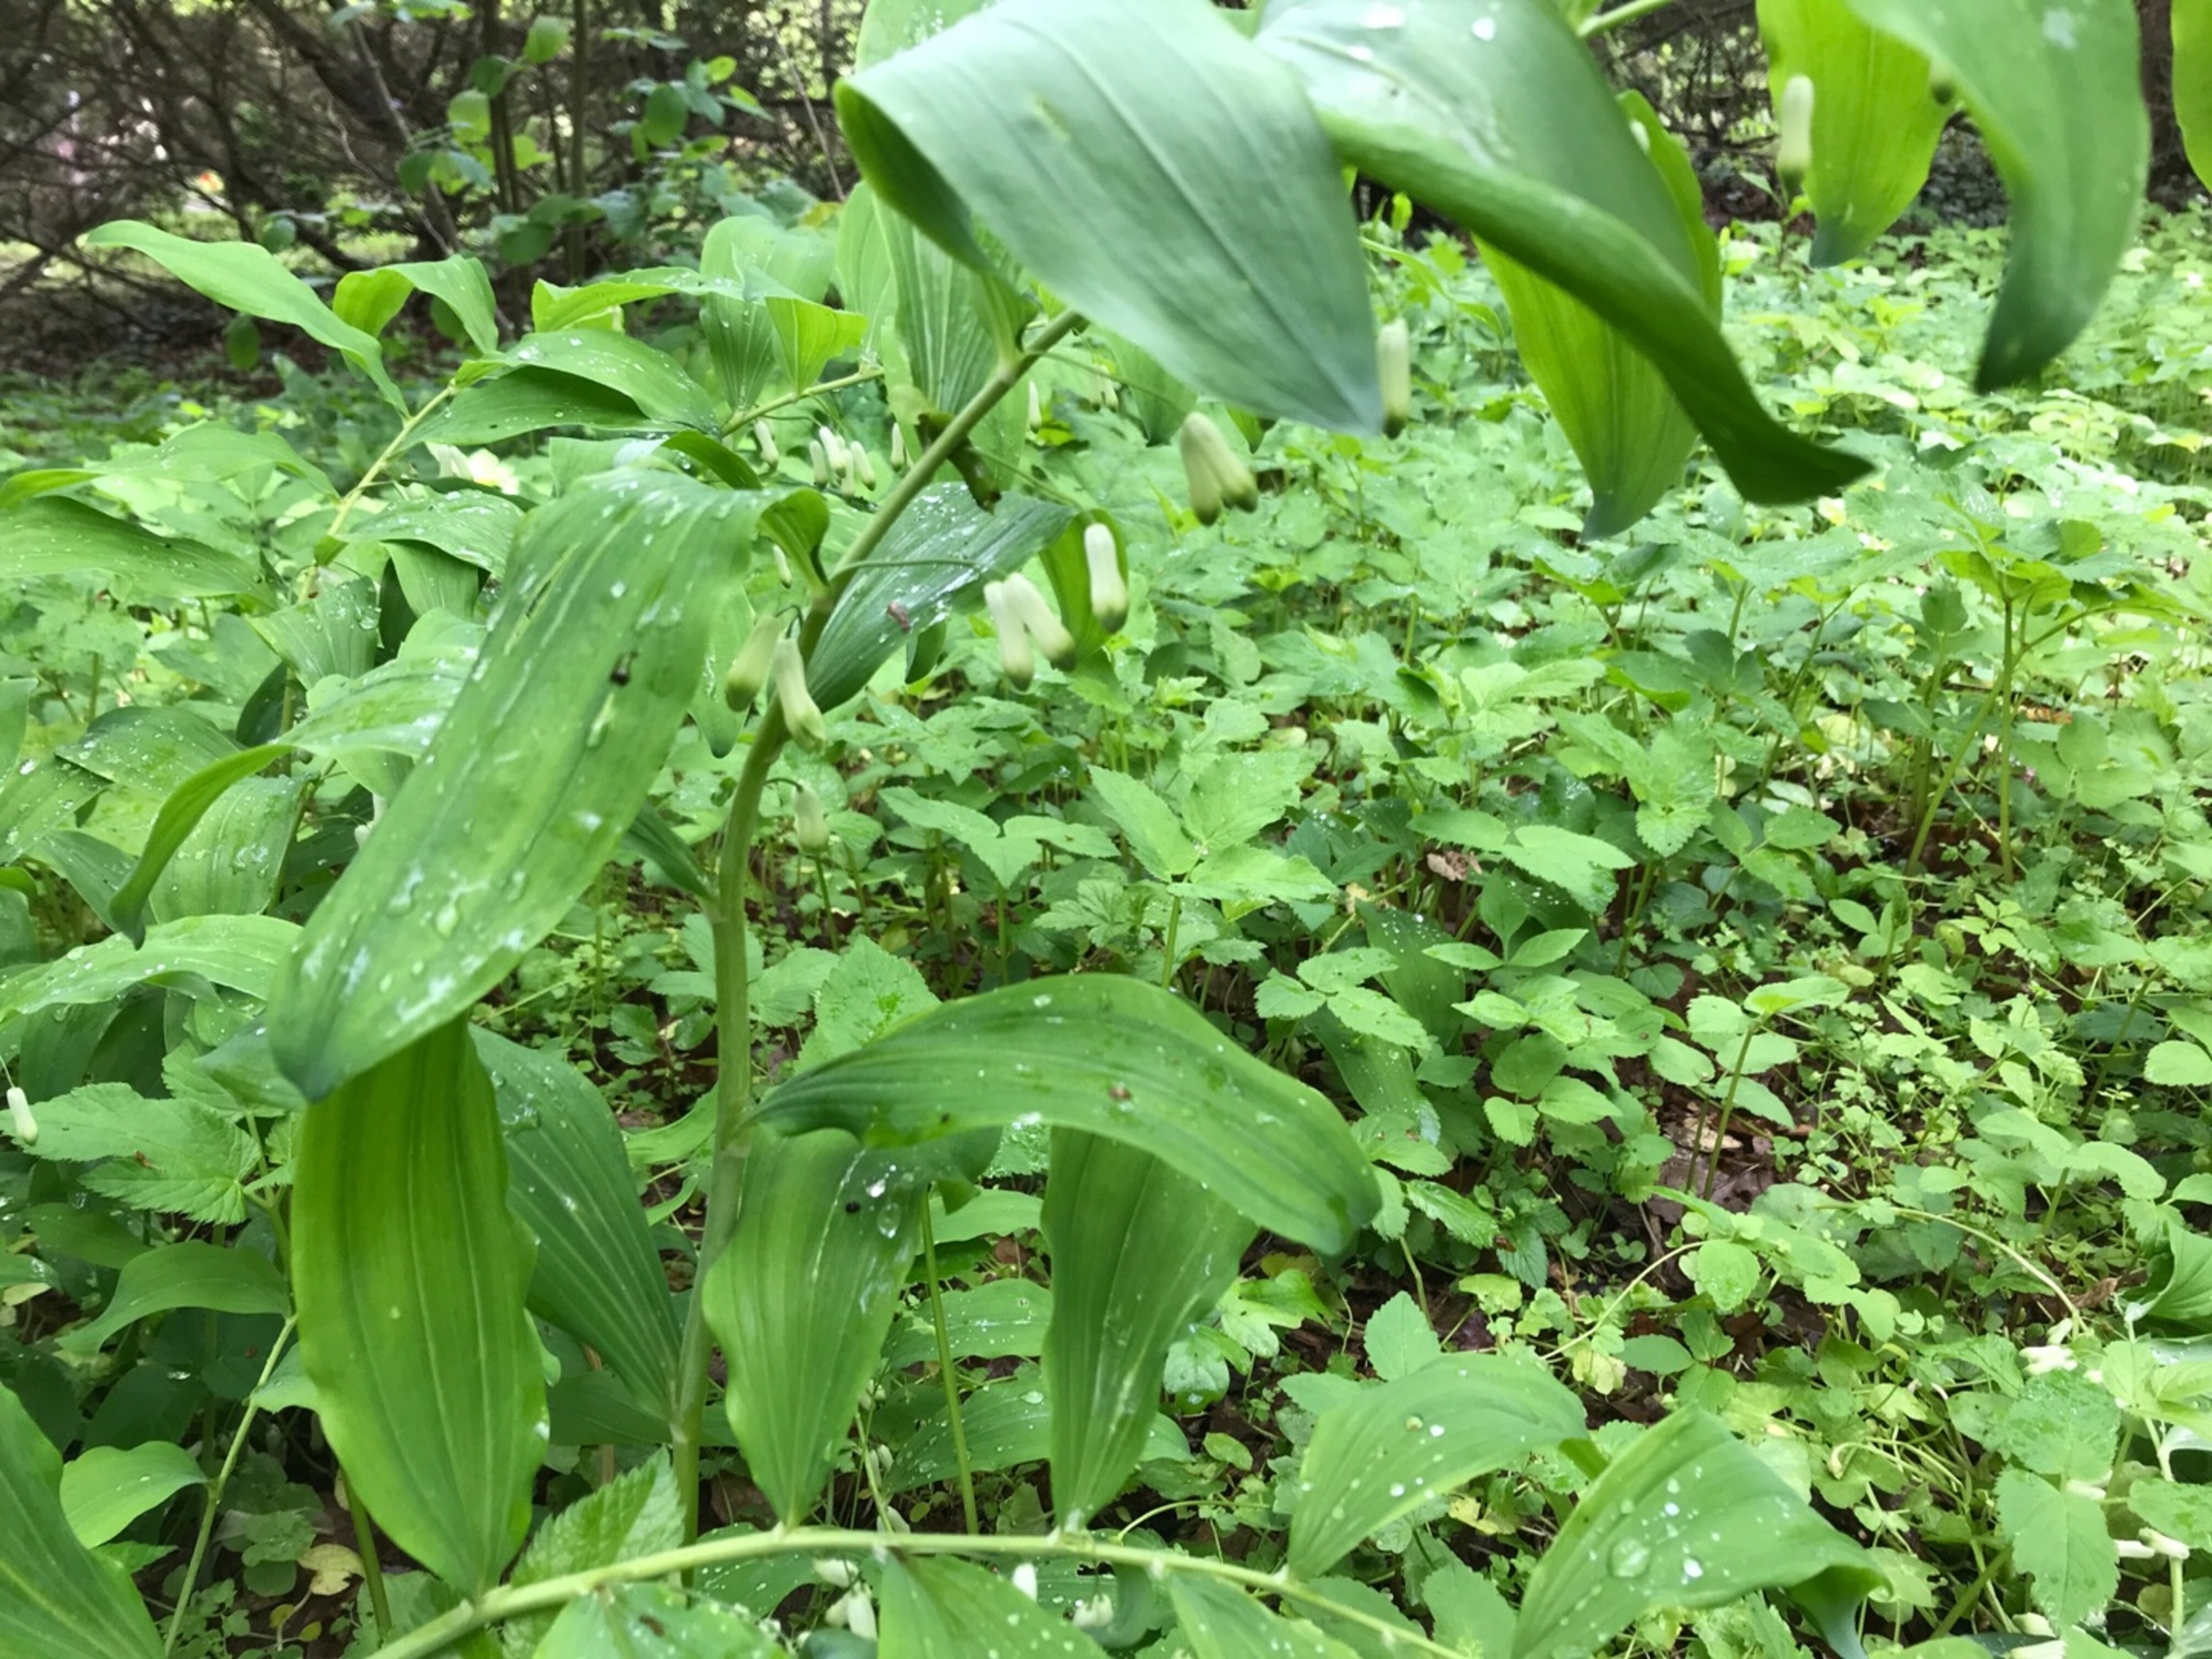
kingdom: Plantae
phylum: Tracheophyta
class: Liliopsida
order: Asparagales
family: Asparagaceae
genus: Polygonatum
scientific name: Polygonatum multiflorum
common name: Stor konval
